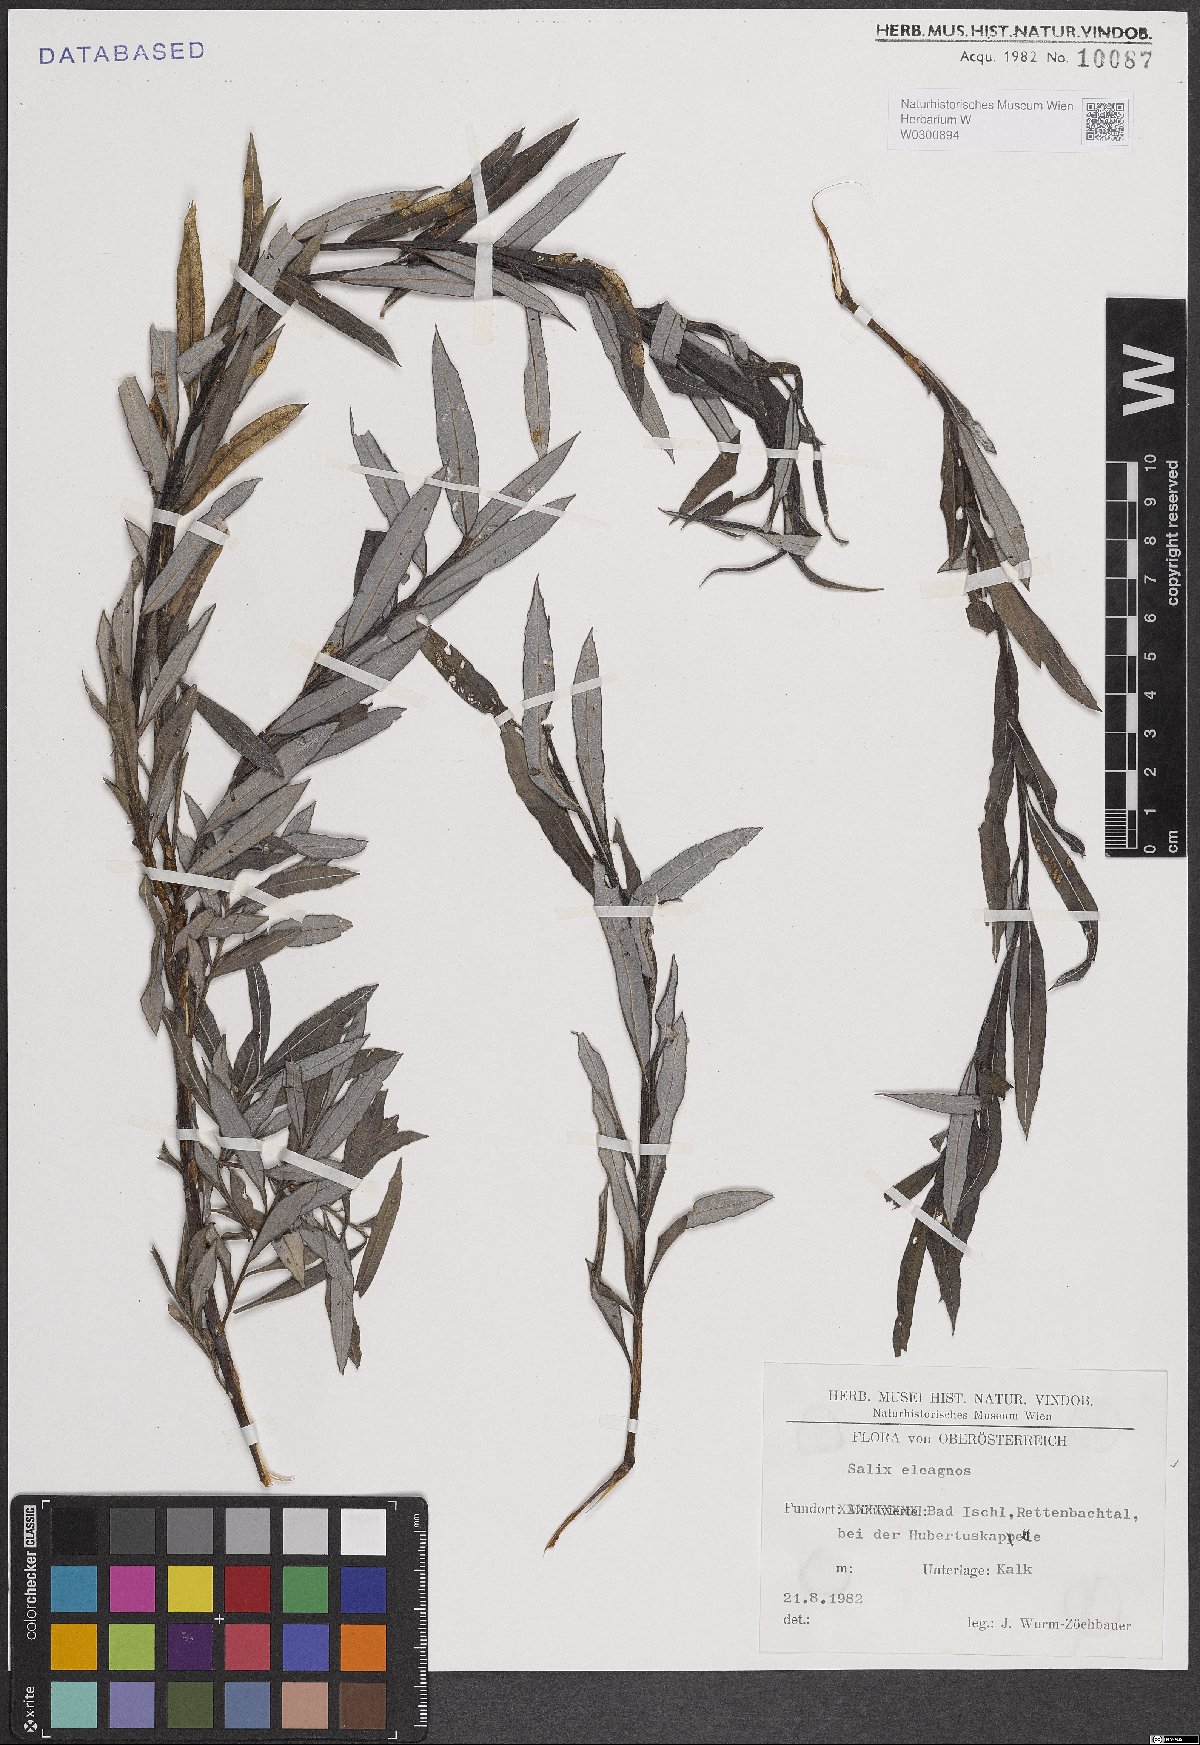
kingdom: Plantae
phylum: Tracheophyta
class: Magnoliopsida
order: Malpighiales
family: Salicaceae
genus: Salix
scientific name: Salix eleagnos
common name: Elaeagnus willow
